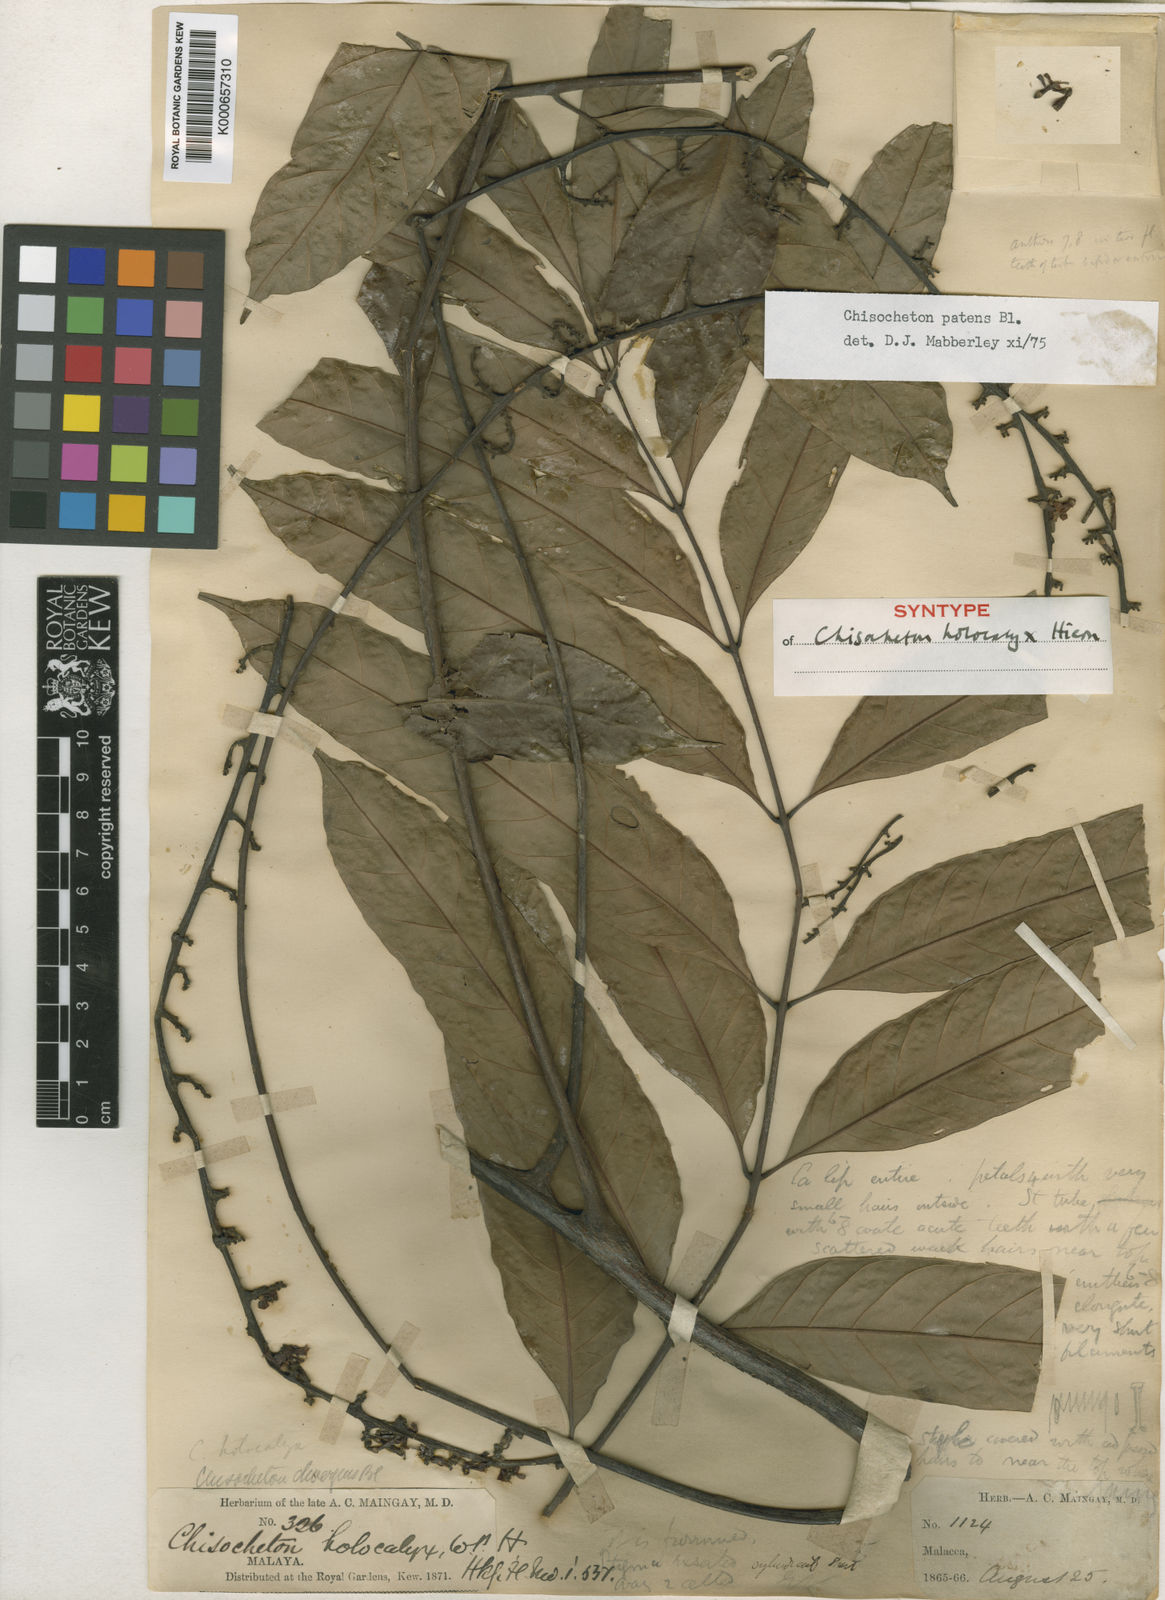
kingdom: Plantae
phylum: Tracheophyta
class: Magnoliopsida
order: Sapindales
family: Meliaceae
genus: Chisocheton
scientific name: Chisocheton patens
